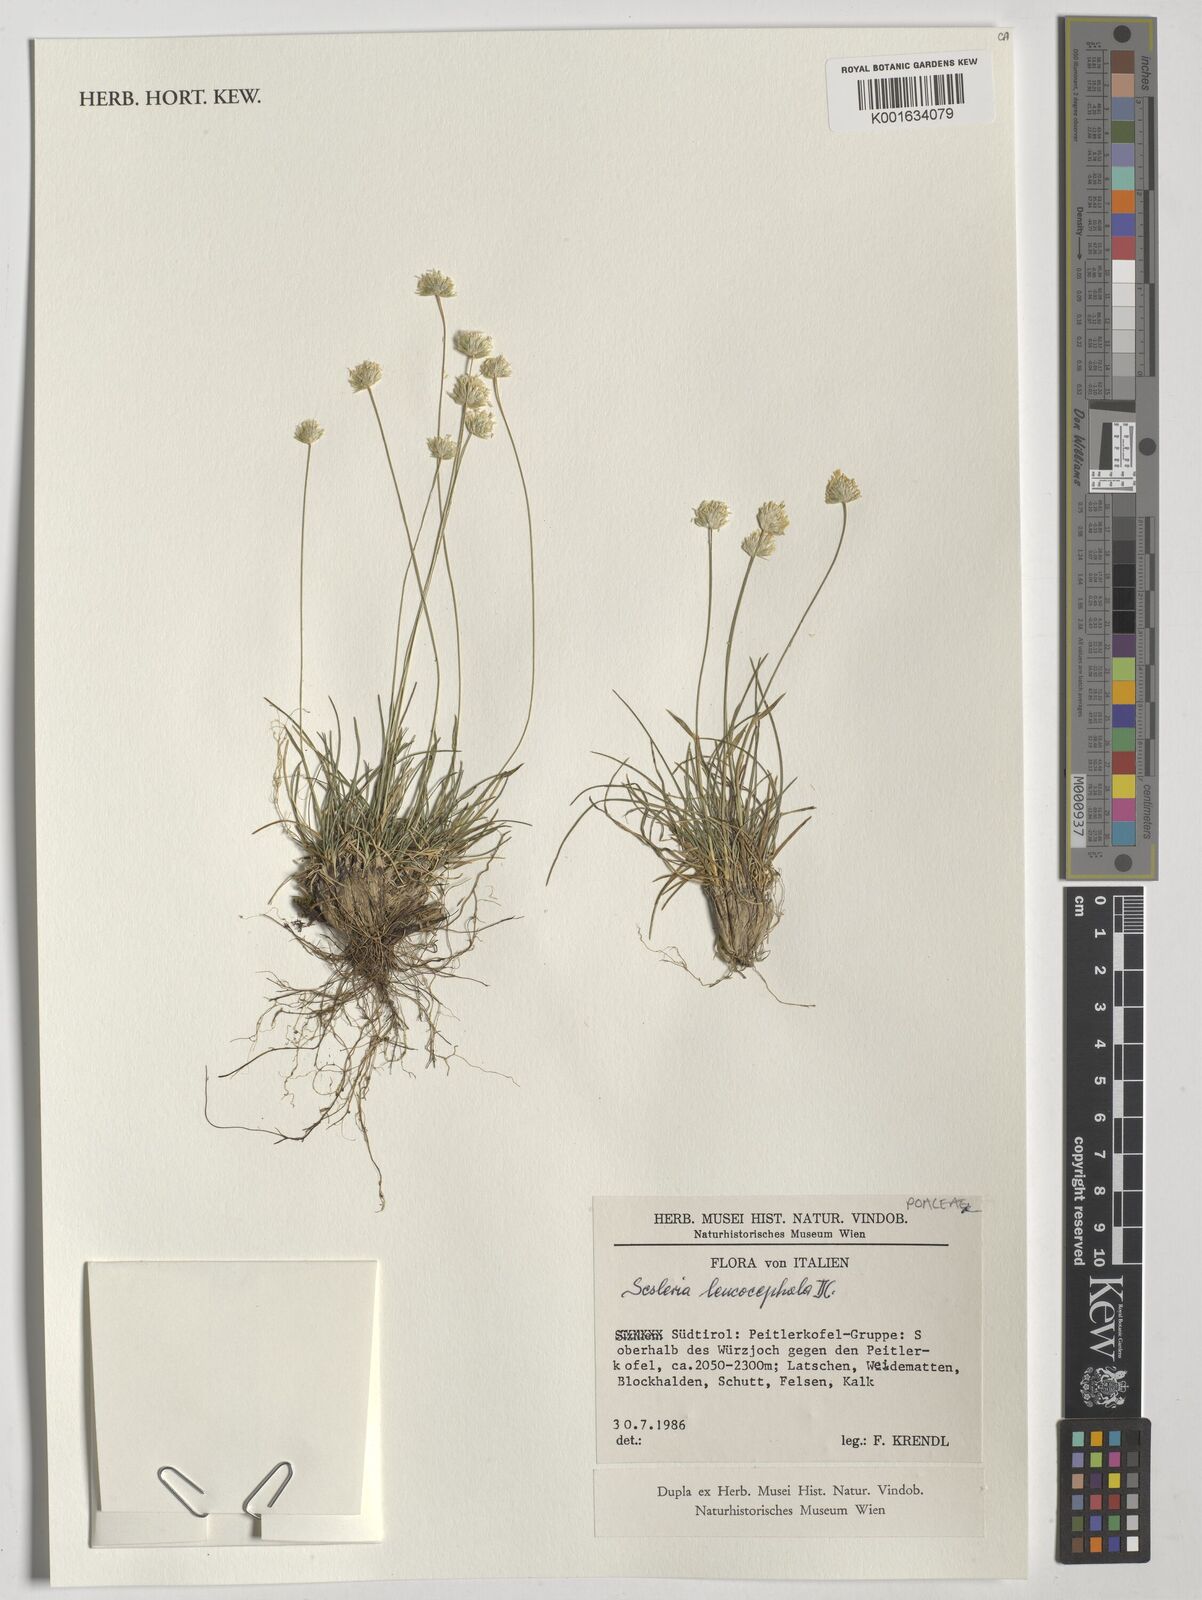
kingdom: Plantae
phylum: Tracheophyta
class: Liliopsida
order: Poales
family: Poaceae
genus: Sesleriella
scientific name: Sesleriella sphaerocephala
